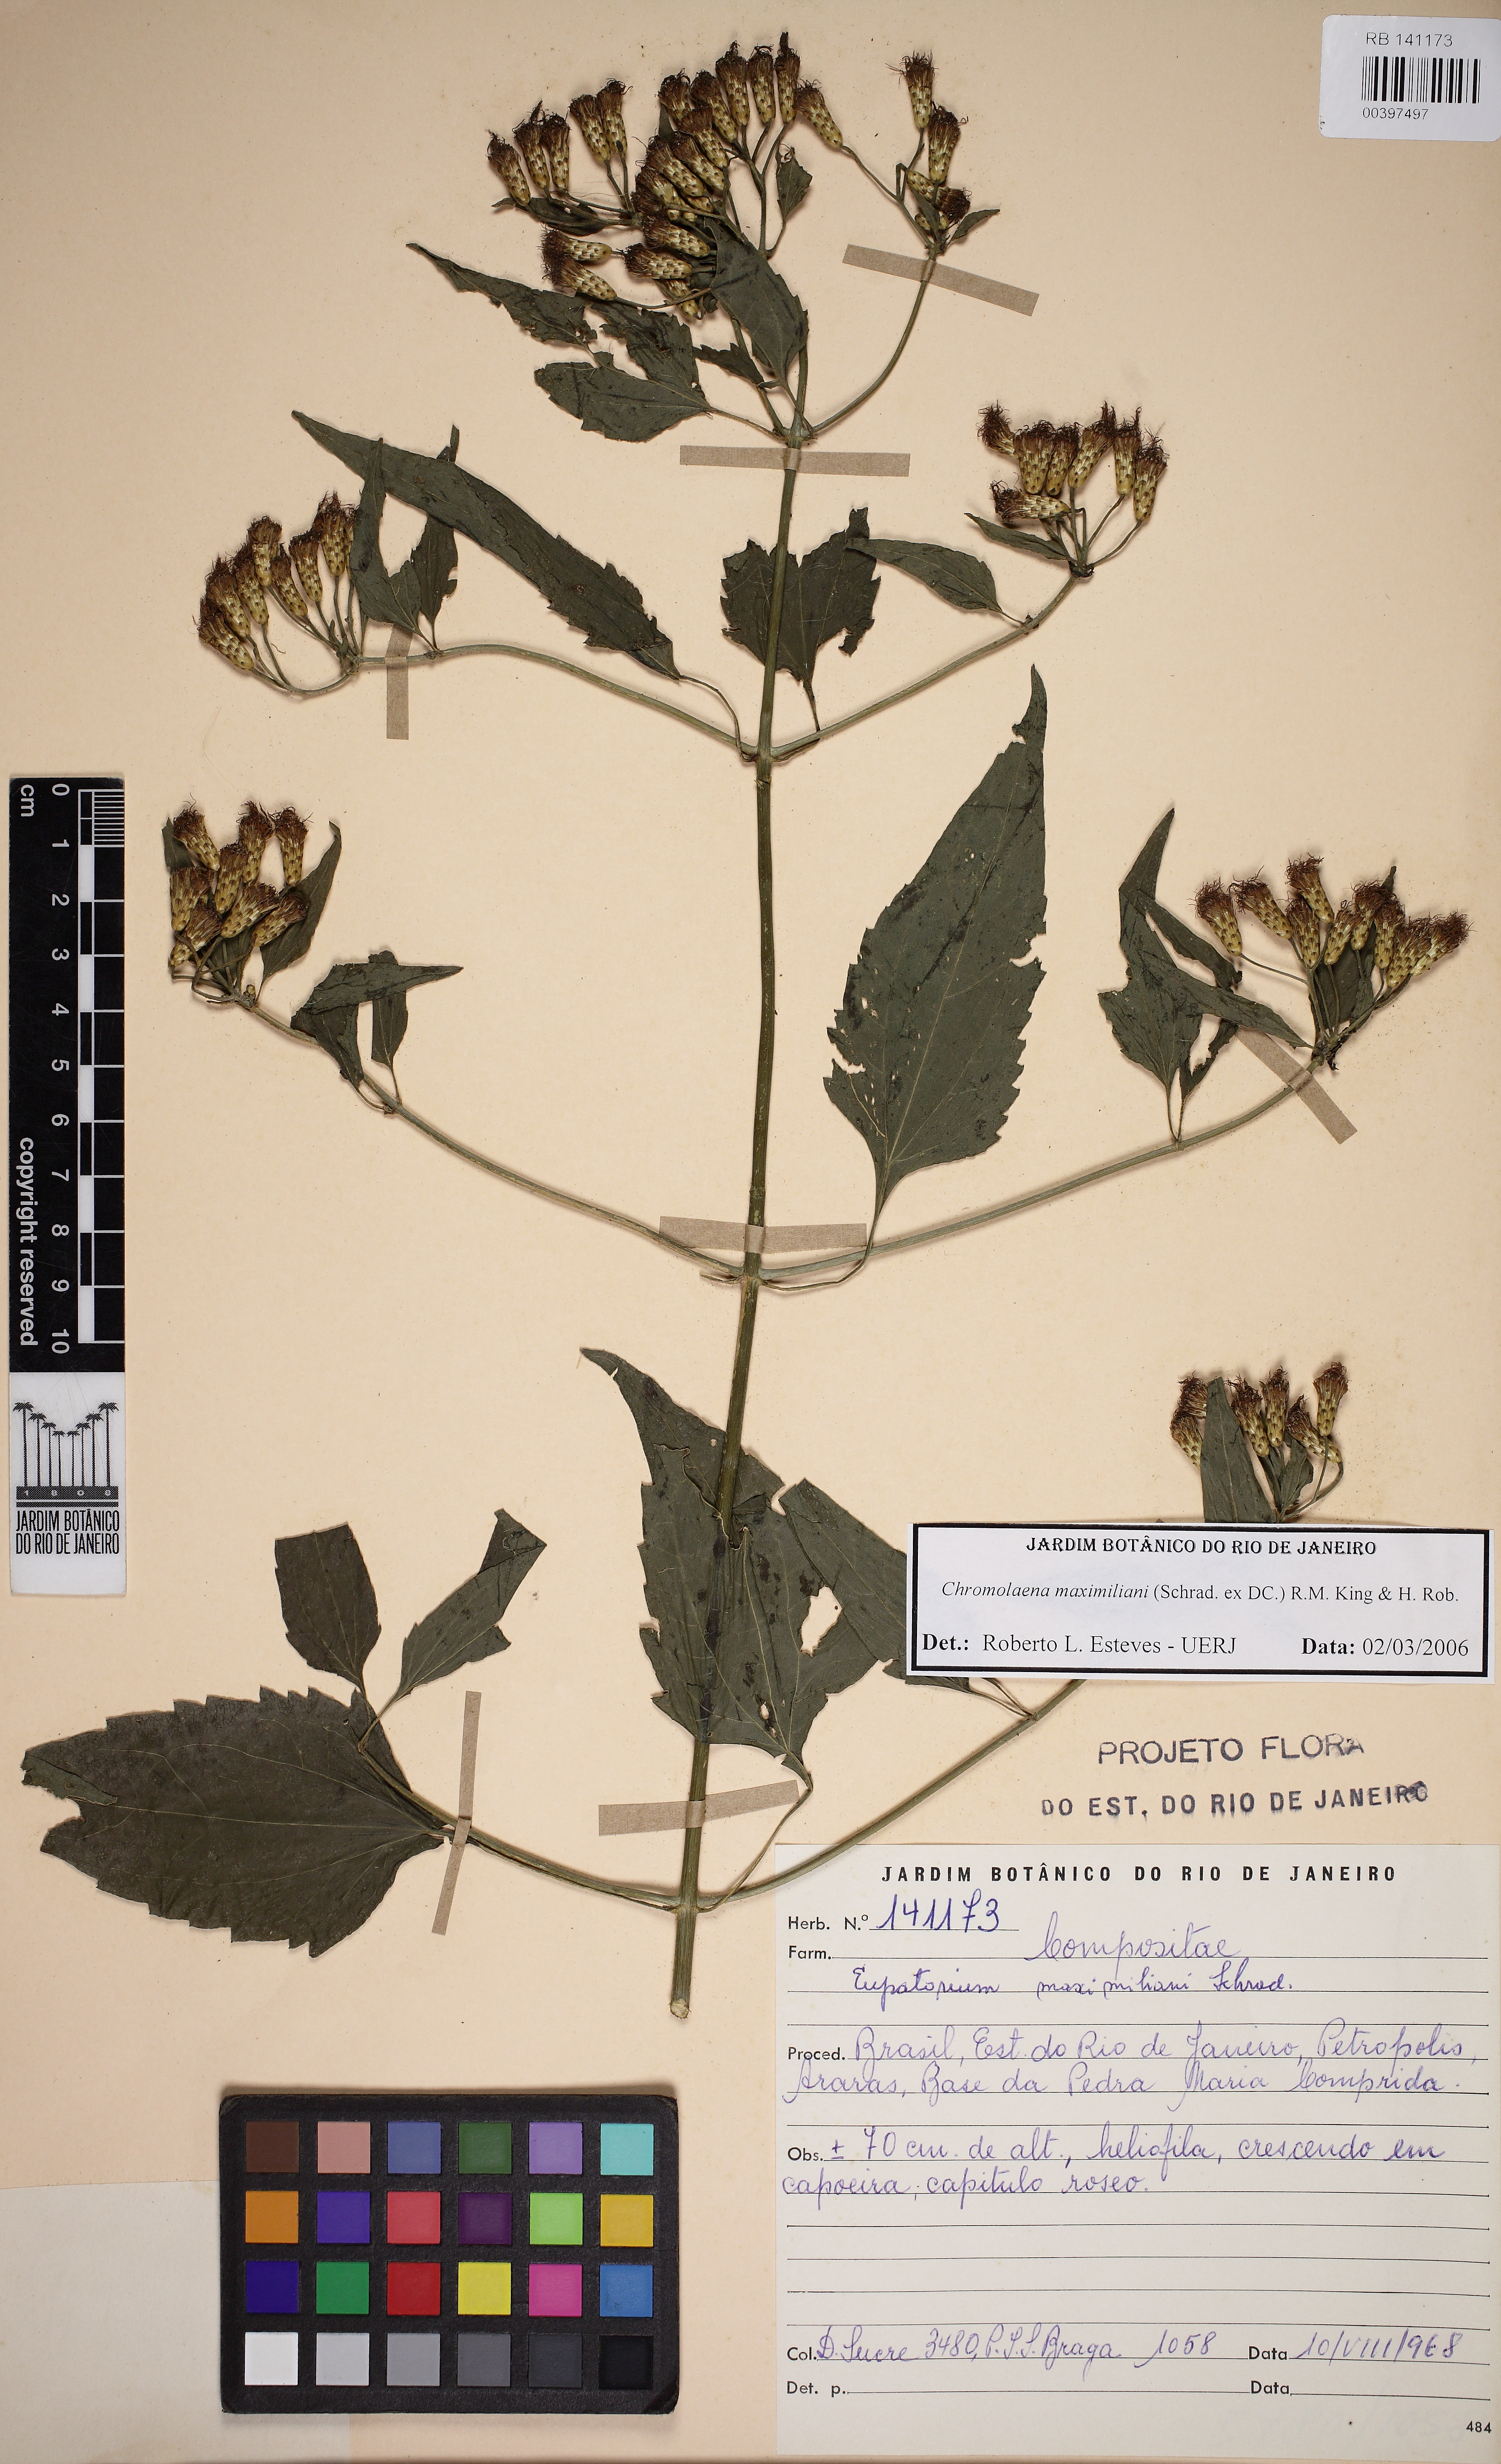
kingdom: Plantae
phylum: Tracheophyta
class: Magnoliopsida
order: Asterales
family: Asteraceae
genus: Chromolaena
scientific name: Chromolaena maximiliani
